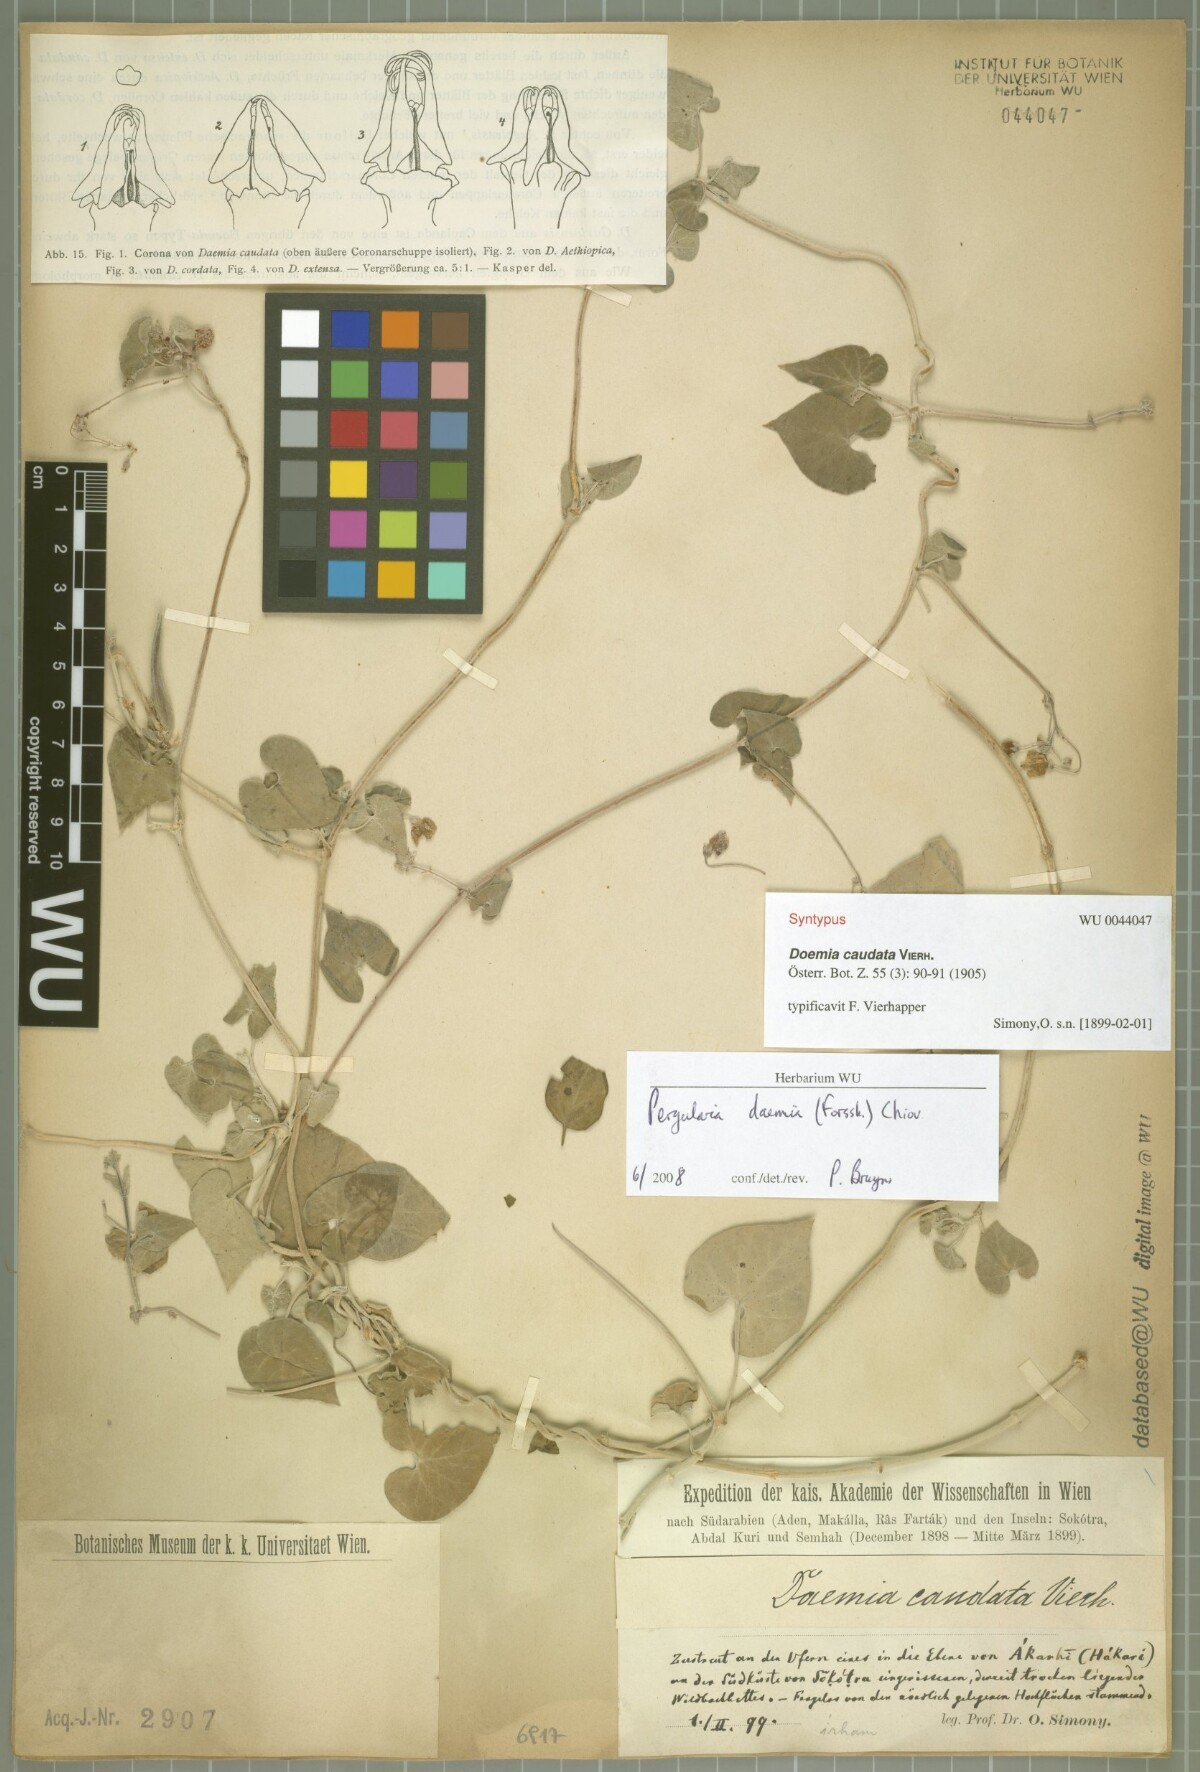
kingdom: Plantae
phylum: Tracheophyta
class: Magnoliopsida
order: Gentianales
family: Apocynaceae
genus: Pergularia
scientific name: Pergularia tomentosa
